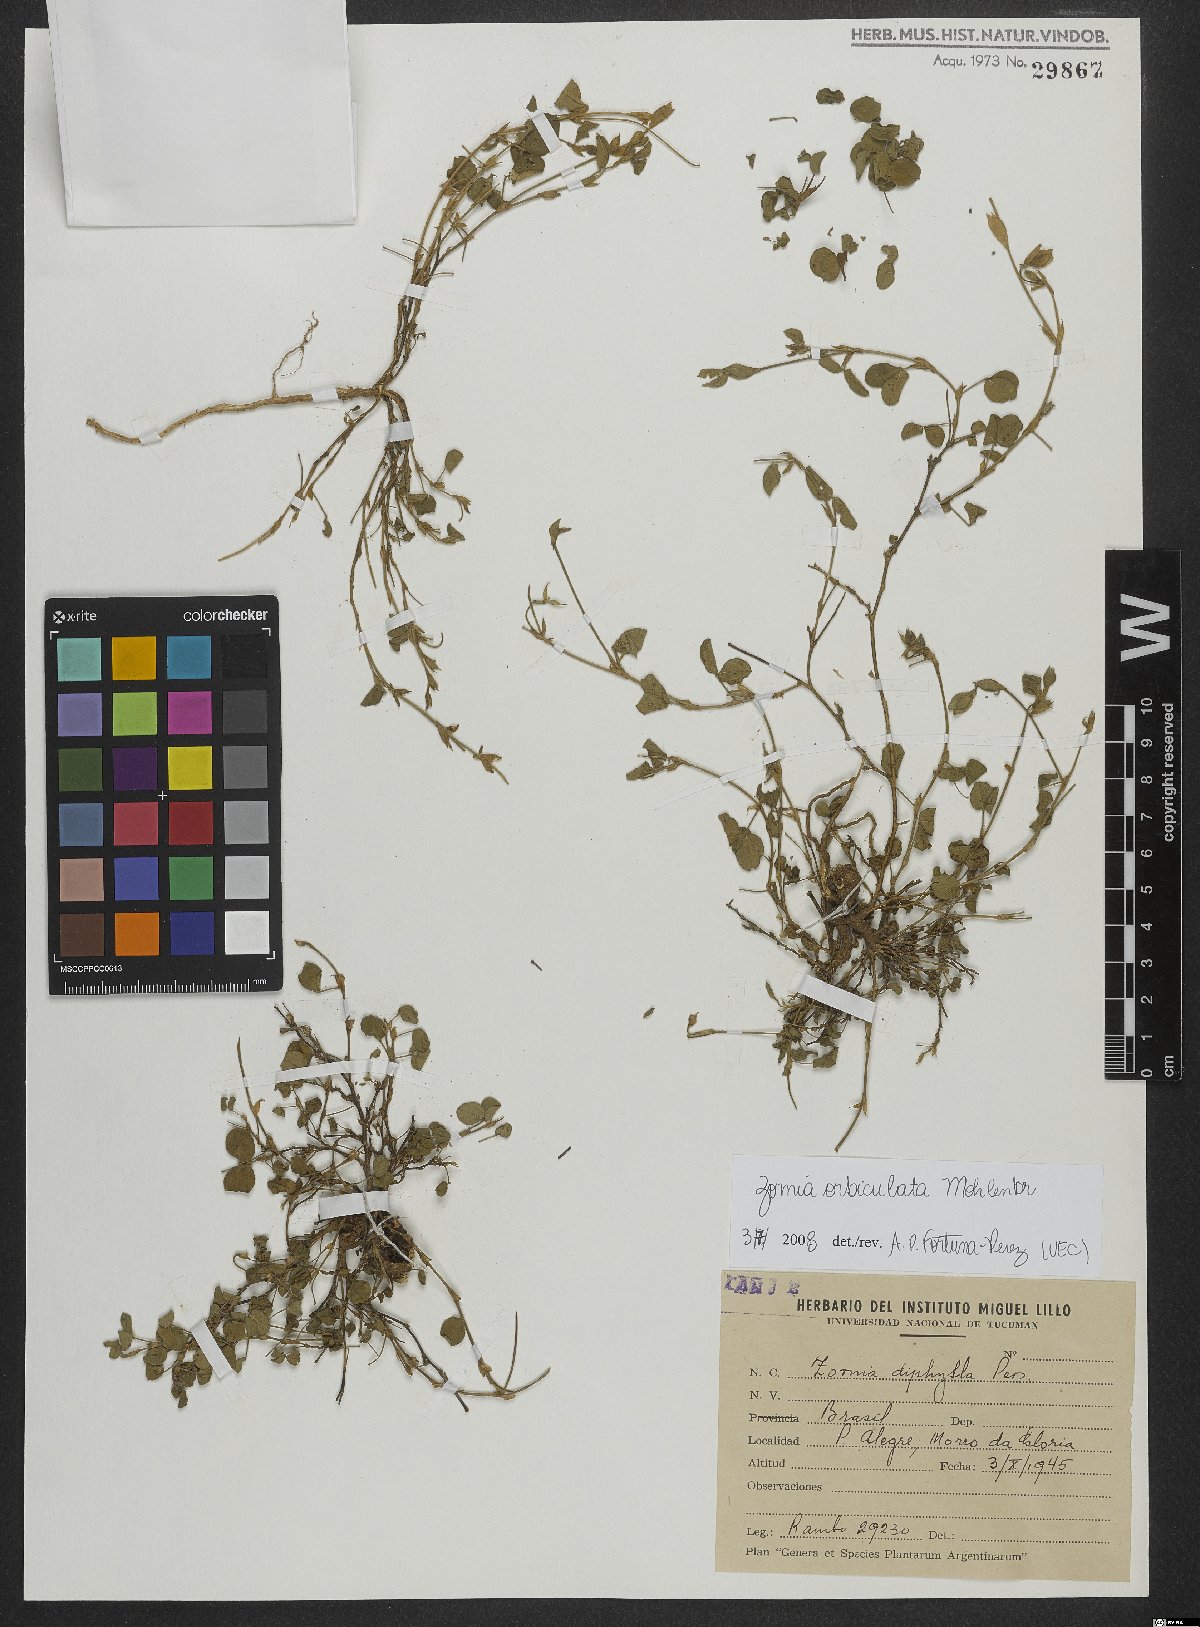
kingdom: Plantae
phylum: Tracheophyta
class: Magnoliopsida
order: Fabales
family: Fabaceae
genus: Zornia
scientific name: Zornia orbiculata
